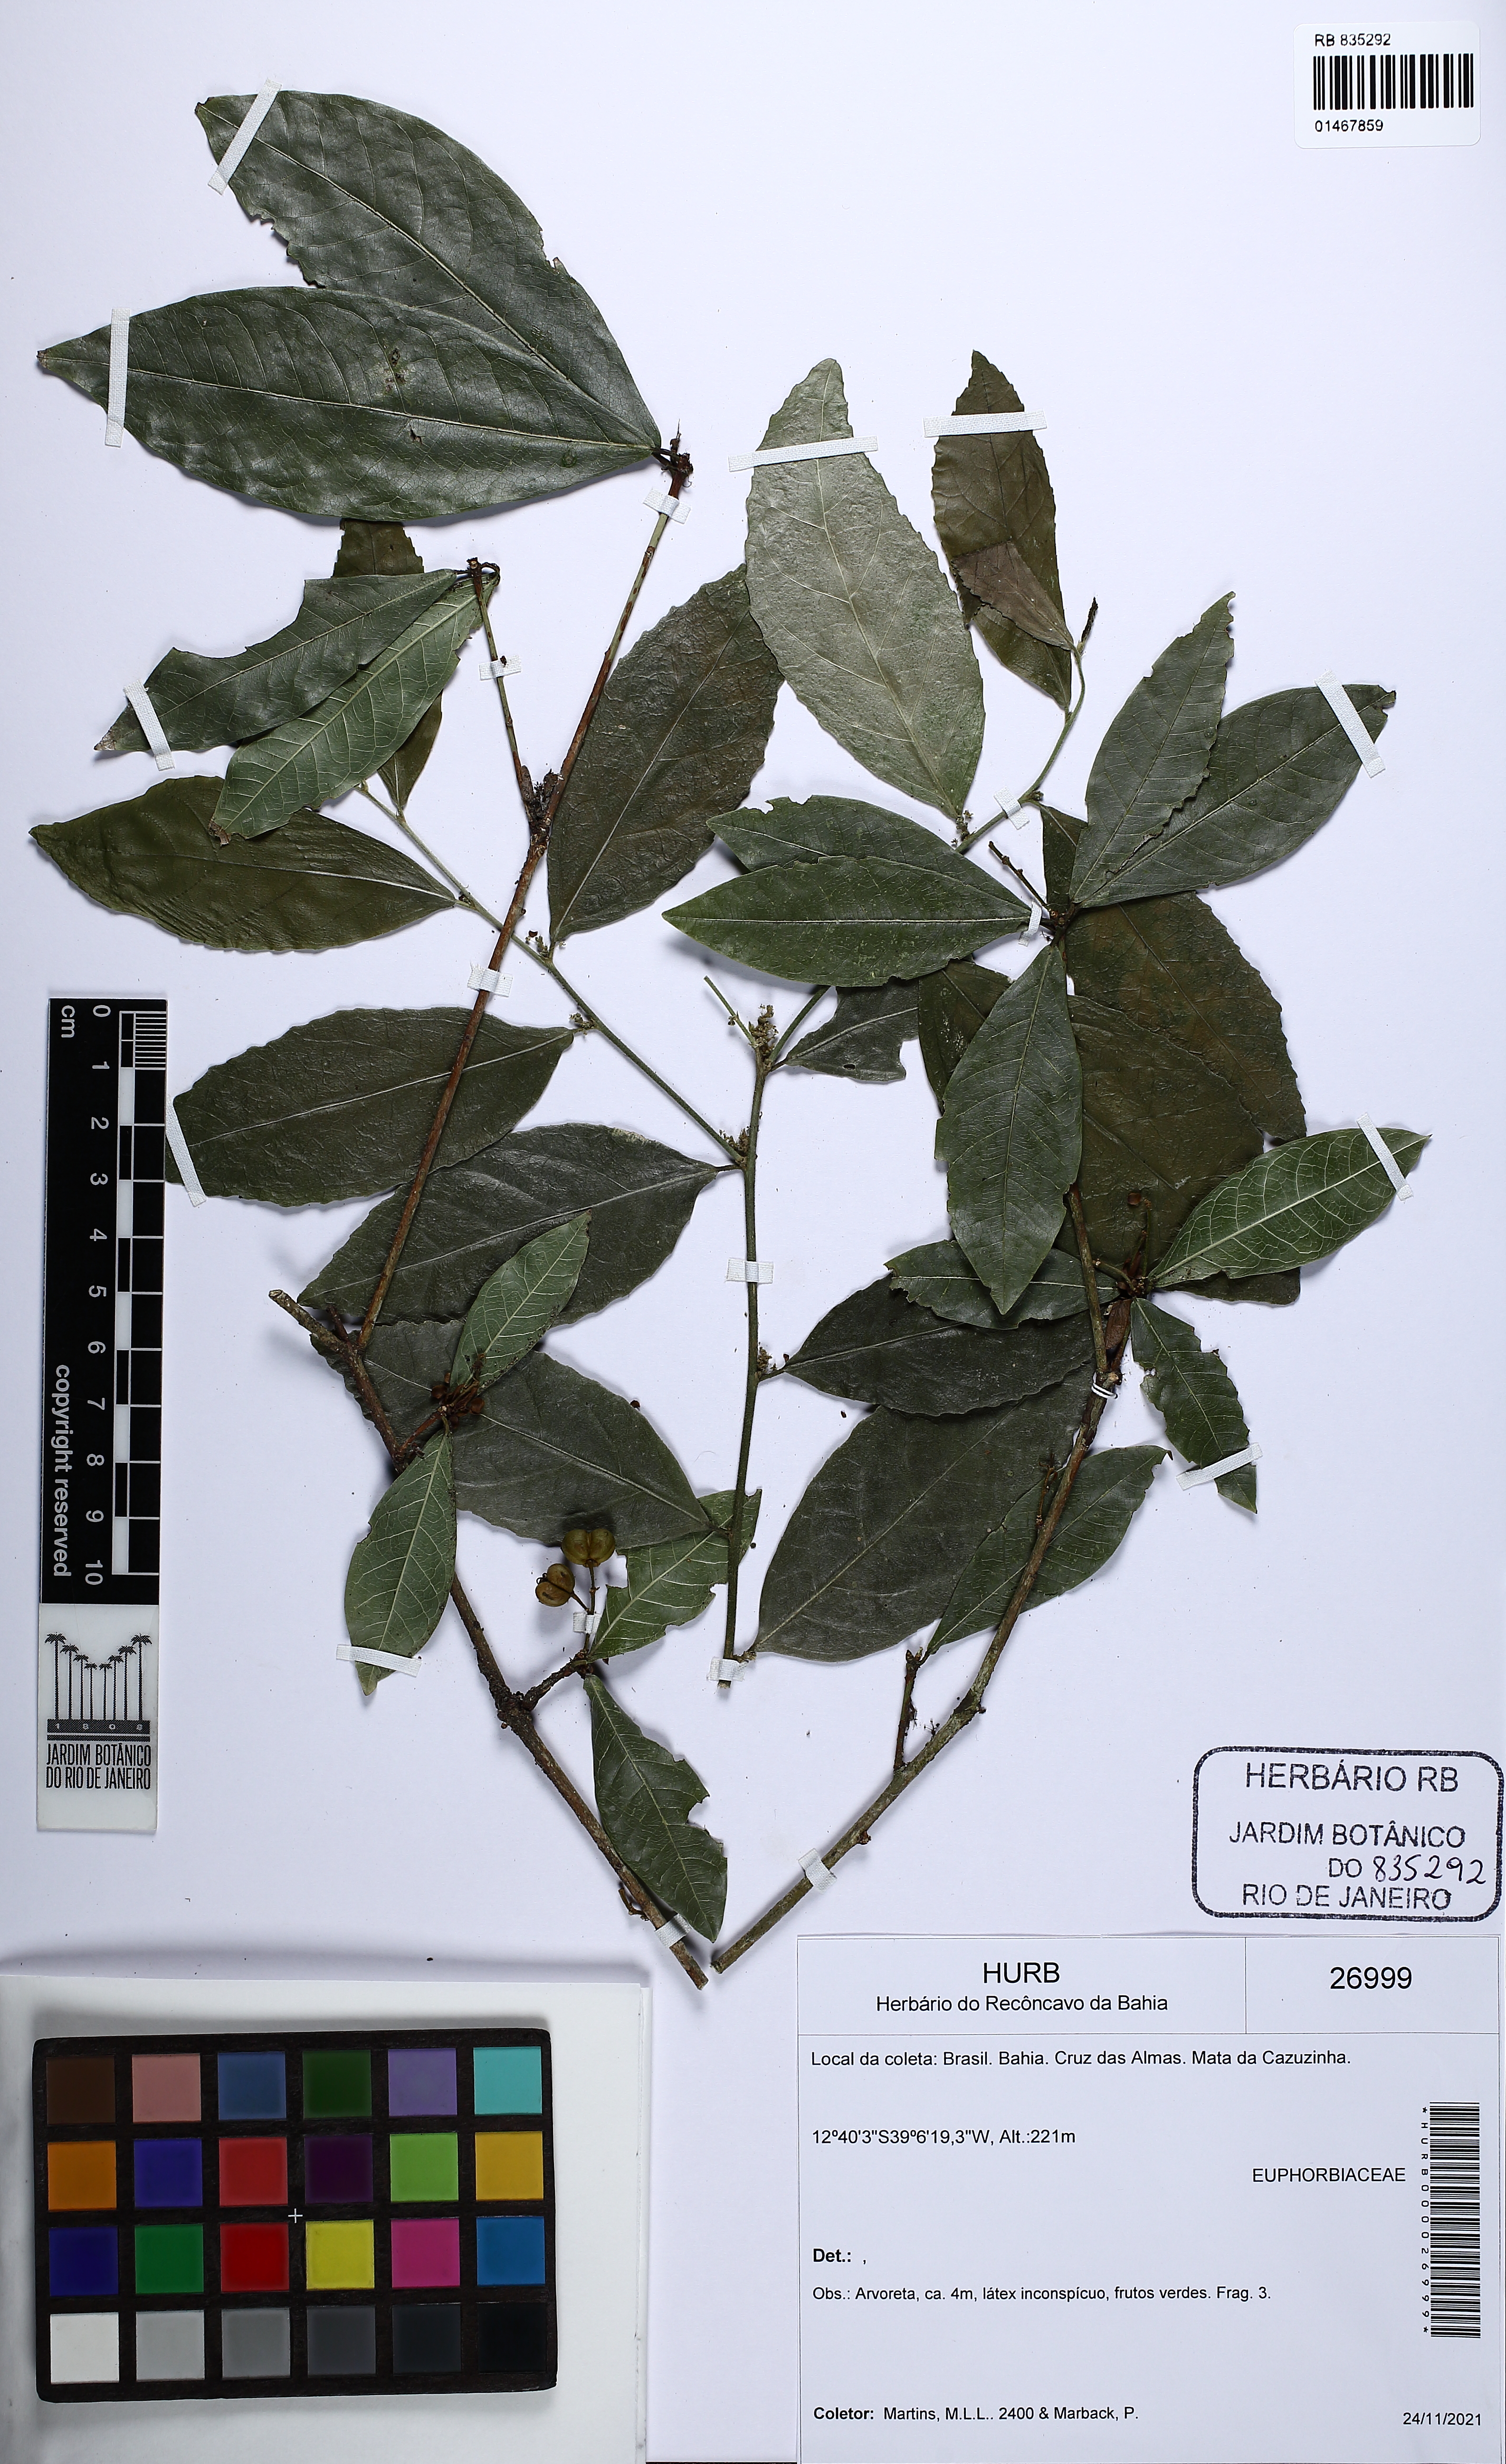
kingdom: Plantae
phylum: Tracheophyta
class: Magnoliopsida
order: Malpighiales
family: Euphorbiaceae
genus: Actinostemon
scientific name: Actinostemon verticillatus
